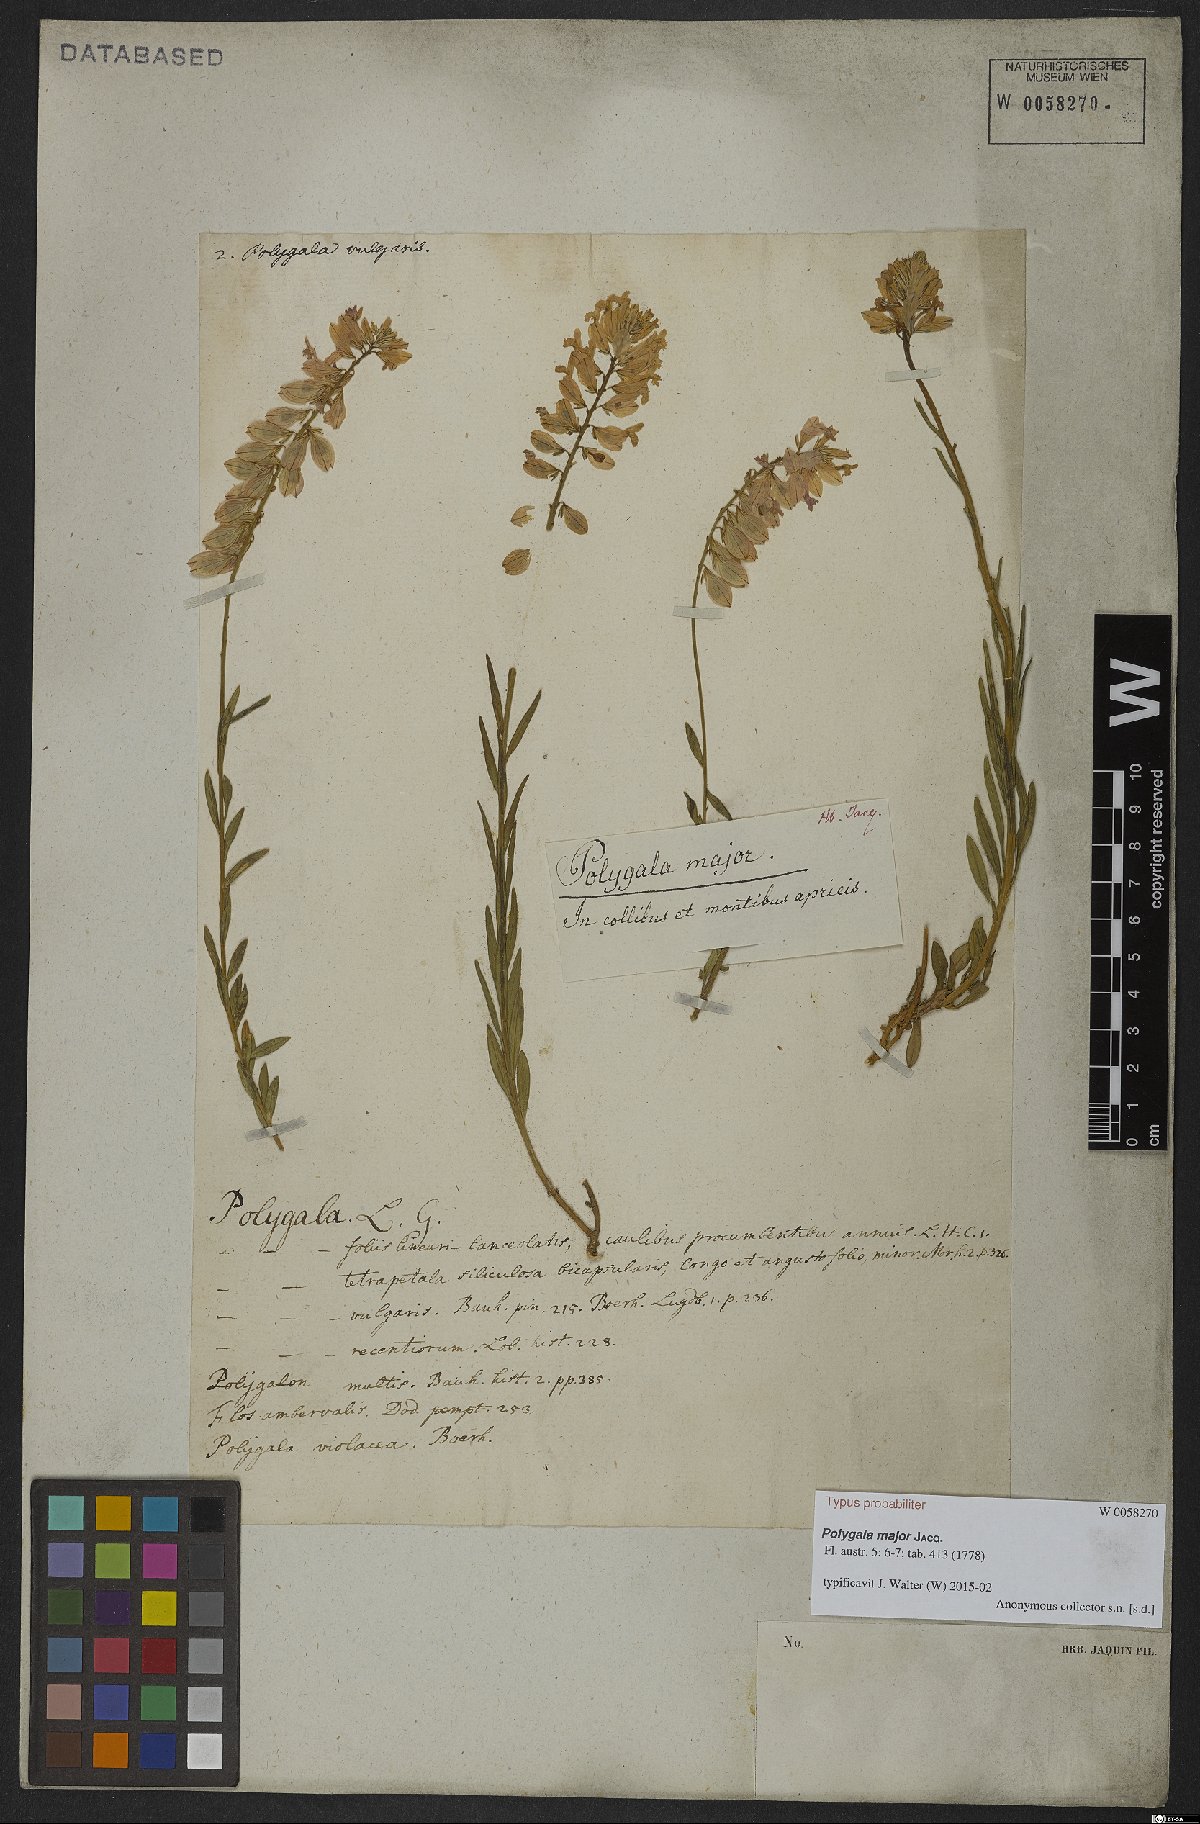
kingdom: Plantae
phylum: Tracheophyta
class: Magnoliopsida
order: Fabales
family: Polygalaceae
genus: Polygala
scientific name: Polygala major
